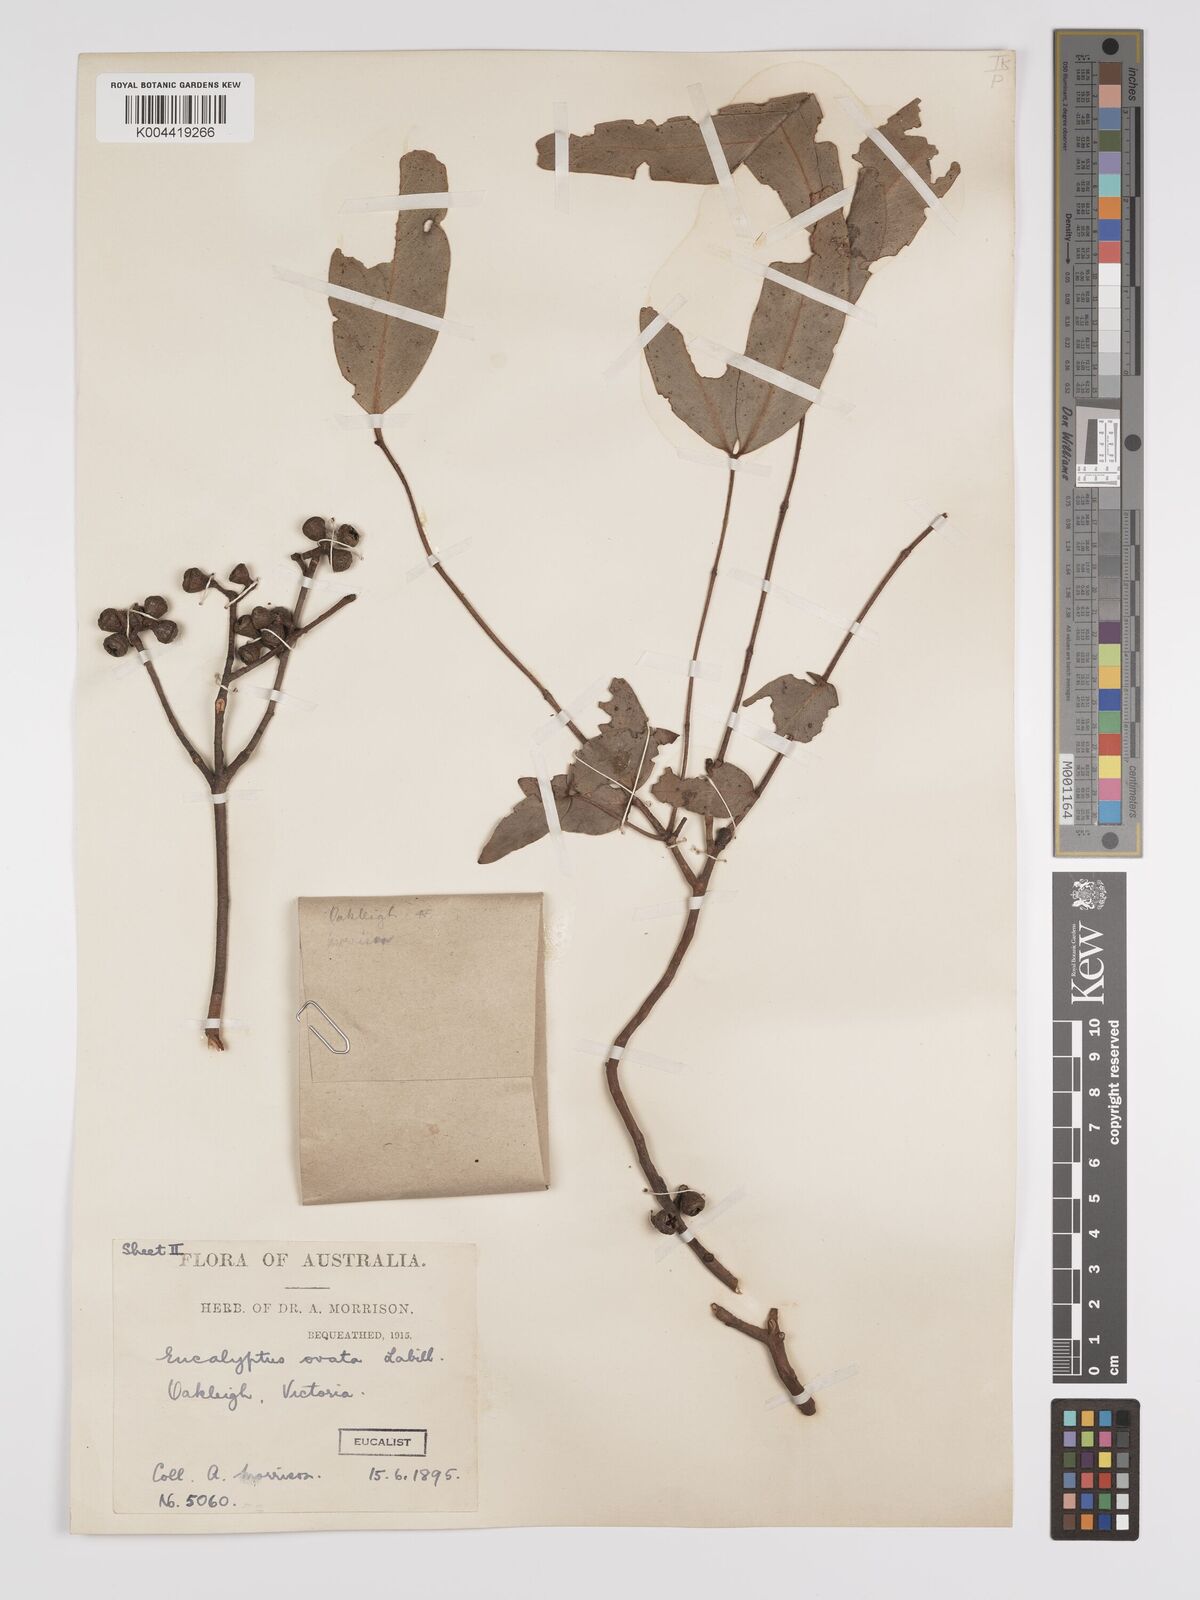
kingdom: Plantae
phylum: Tracheophyta
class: Magnoliopsida
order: Myrtales
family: Myrtaceae
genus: Eucalyptus
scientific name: Eucalyptus ovata
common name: Black-gum
